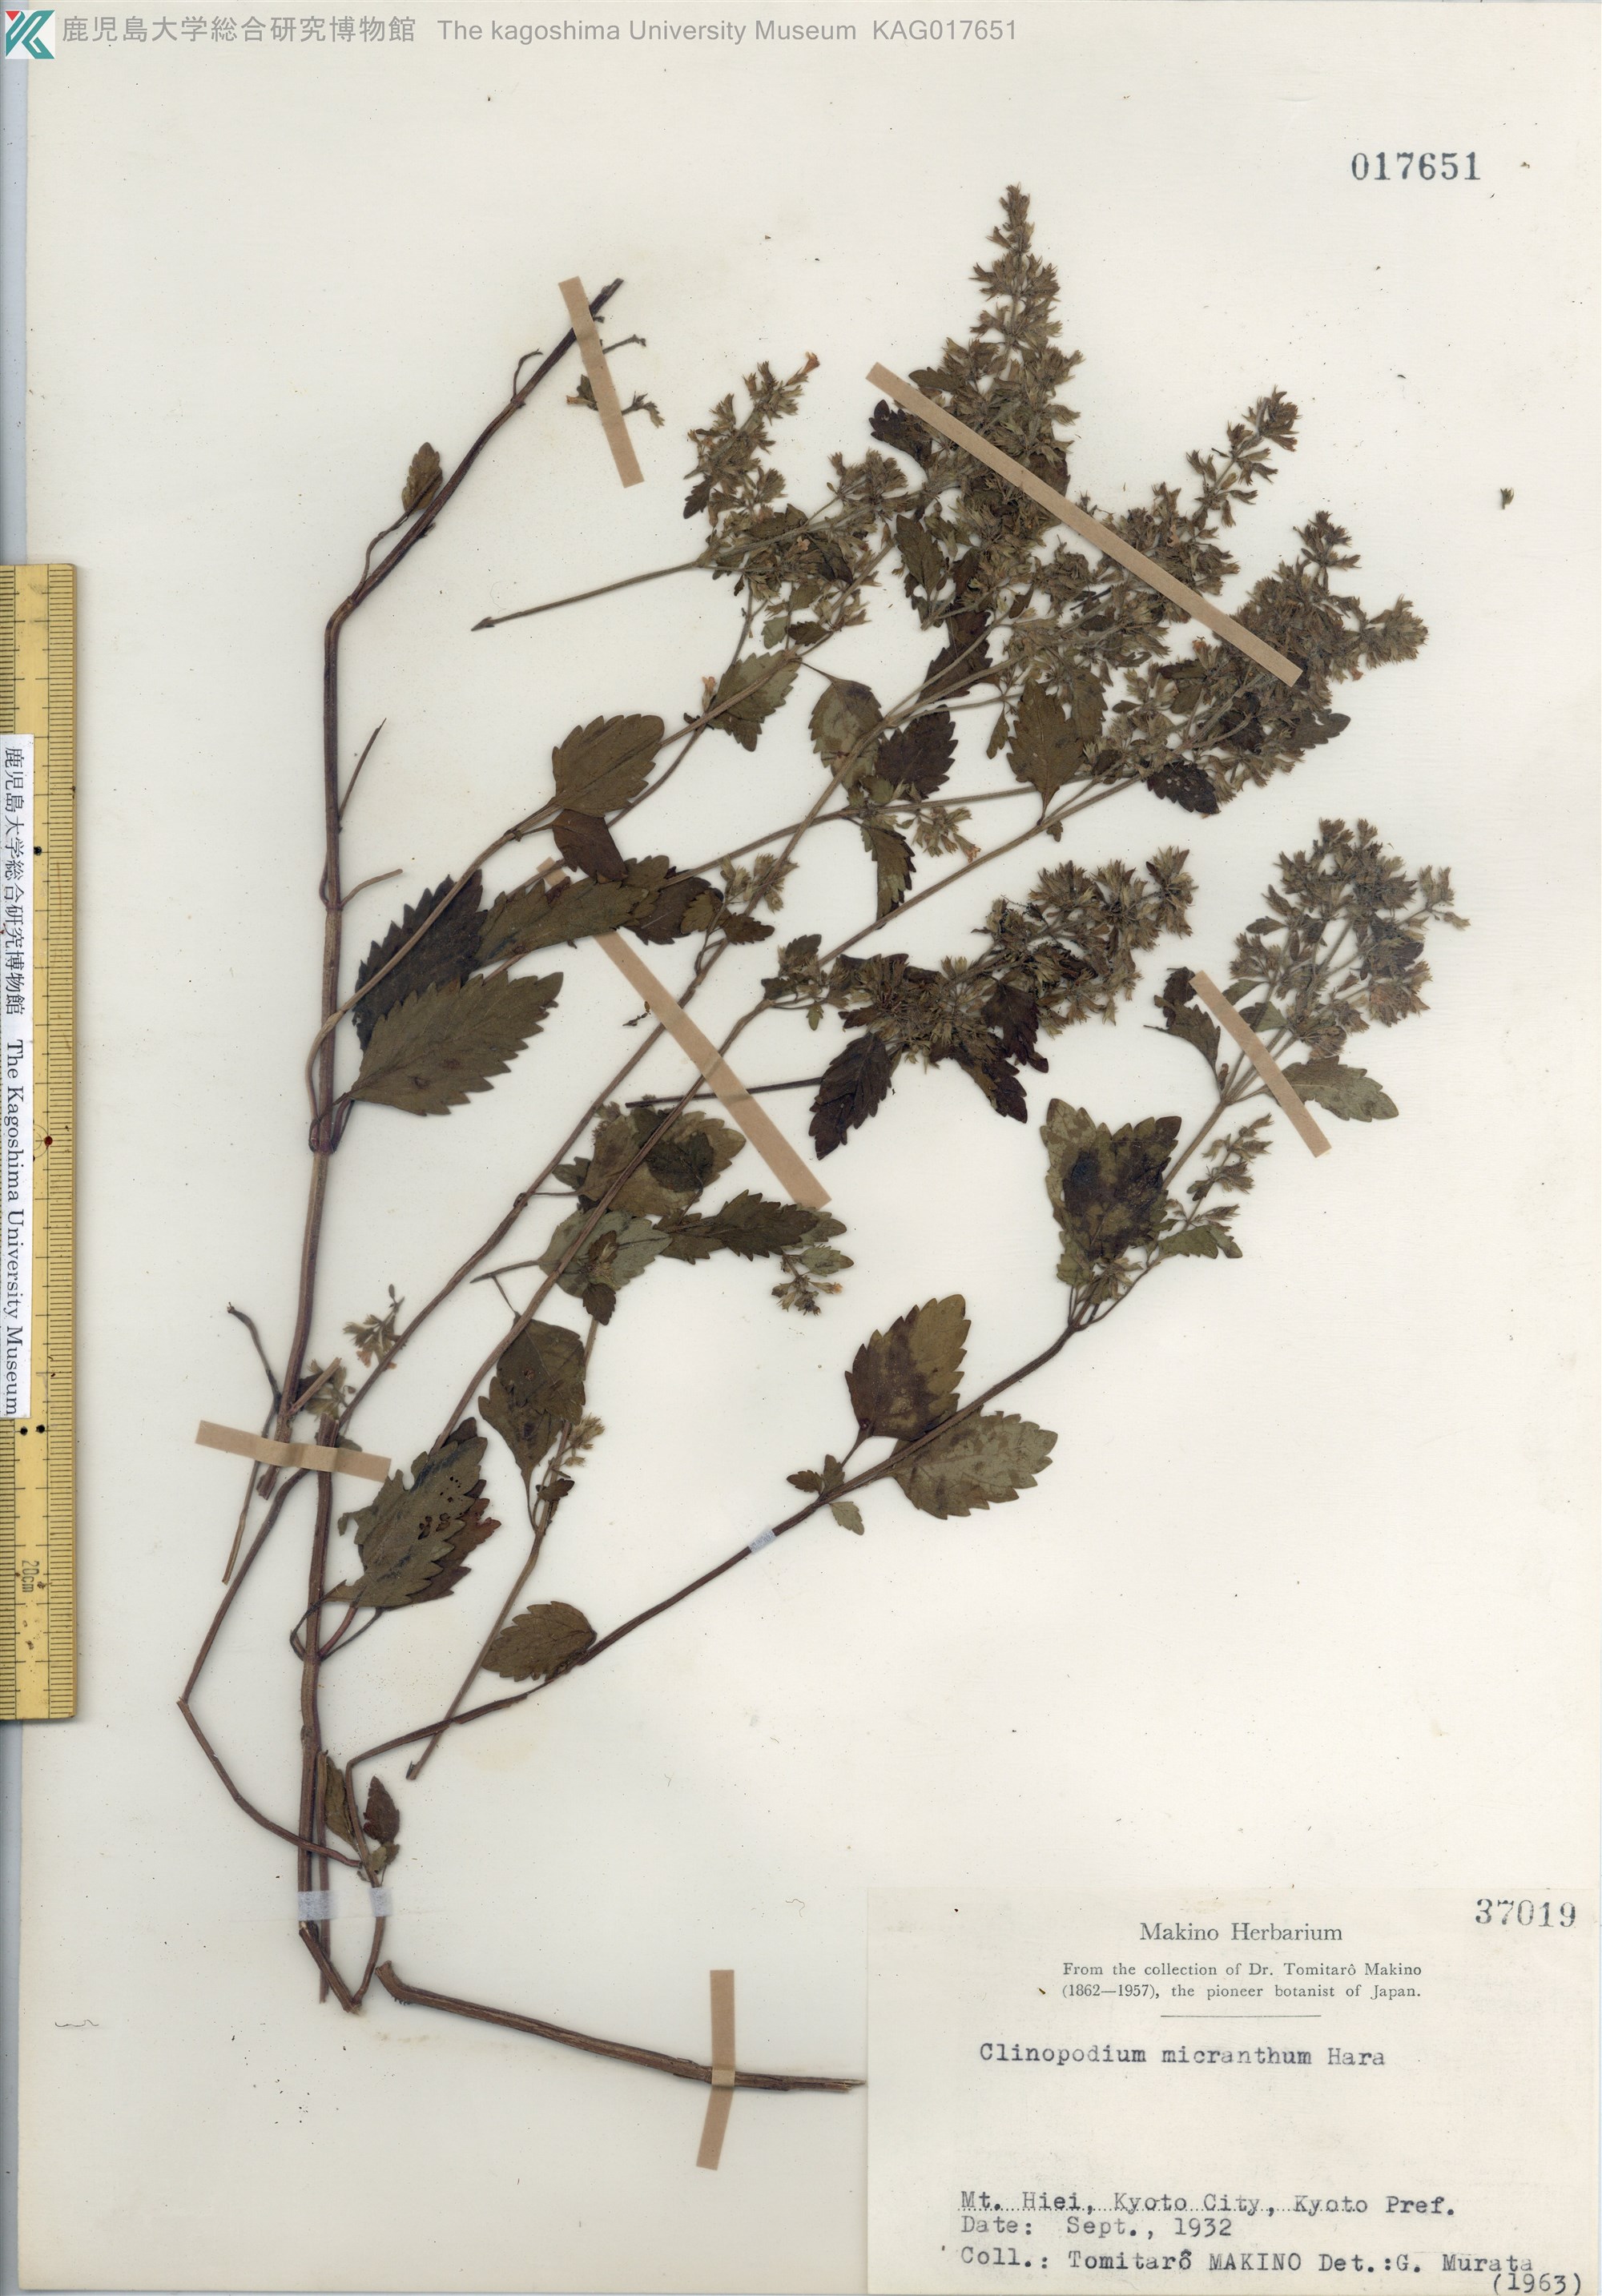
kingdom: Plantae
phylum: Tracheophyta
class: Magnoliopsida
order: Lamiales
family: Lamiaceae
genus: Clinopodium
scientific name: Clinopodium micranthum
